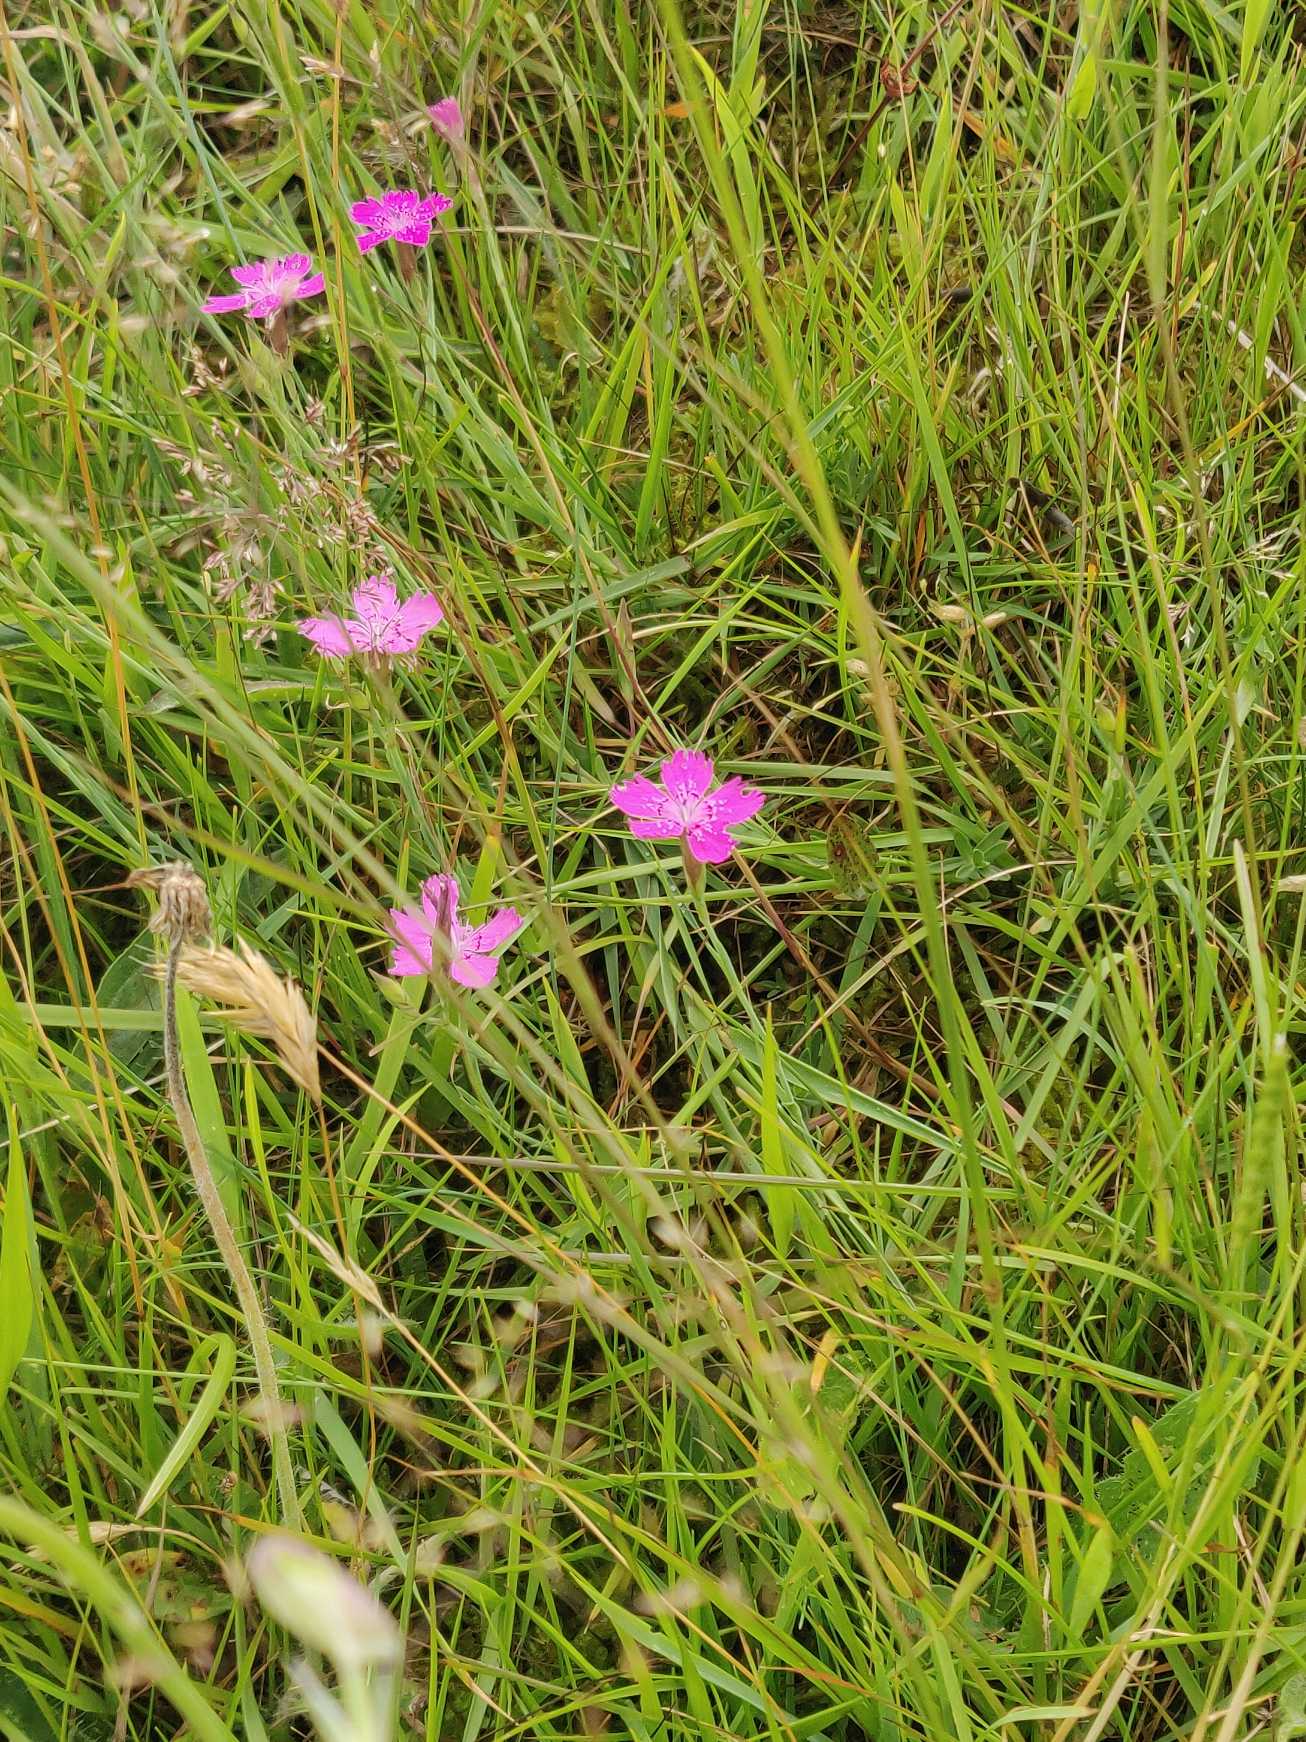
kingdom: Plantae
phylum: Tracheophyta
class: Magnoliopsida
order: Caryophyllales
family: Caryophyllaceae
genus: Dianthus
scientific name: Dianthus deltoides
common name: Bakke-nellike
